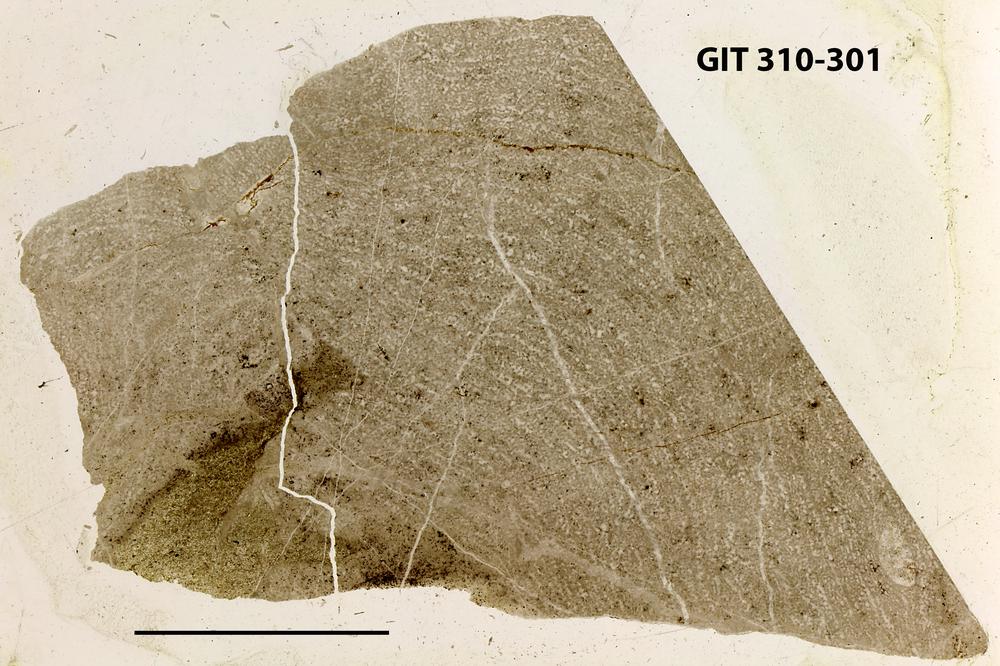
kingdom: Animalia
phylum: Porifera
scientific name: Porifera
